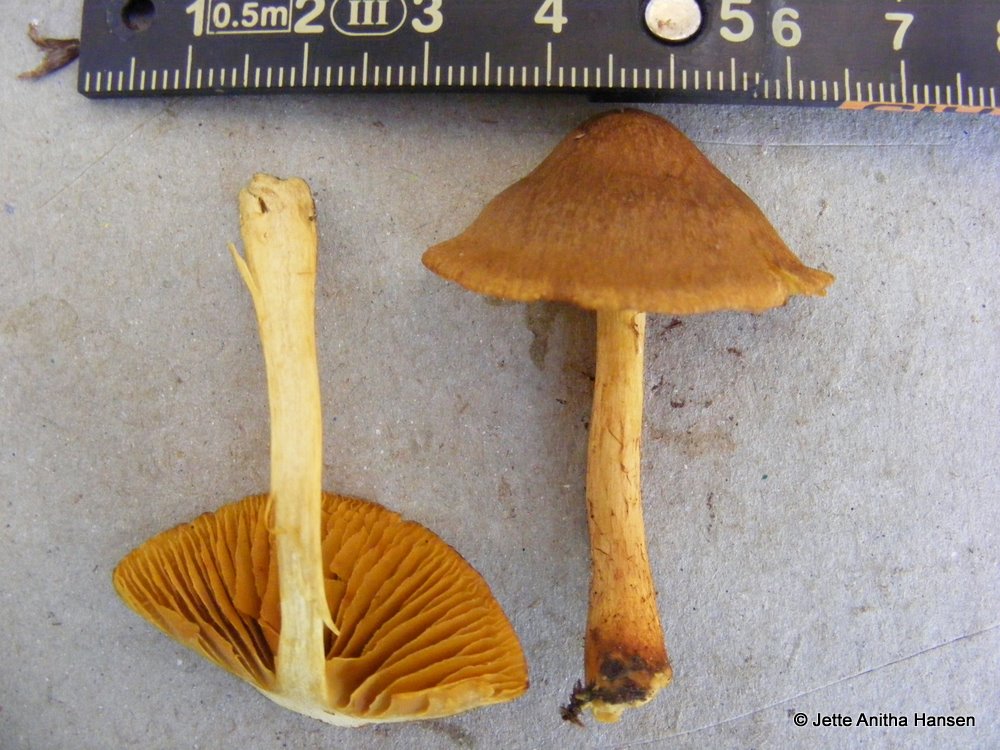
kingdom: Fungi
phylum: Basidiomycota
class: Agaricomycetes
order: Agaricales
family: Cortinariaceae
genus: Cortinarius
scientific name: Cortinarius
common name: gulbladet slørhat
